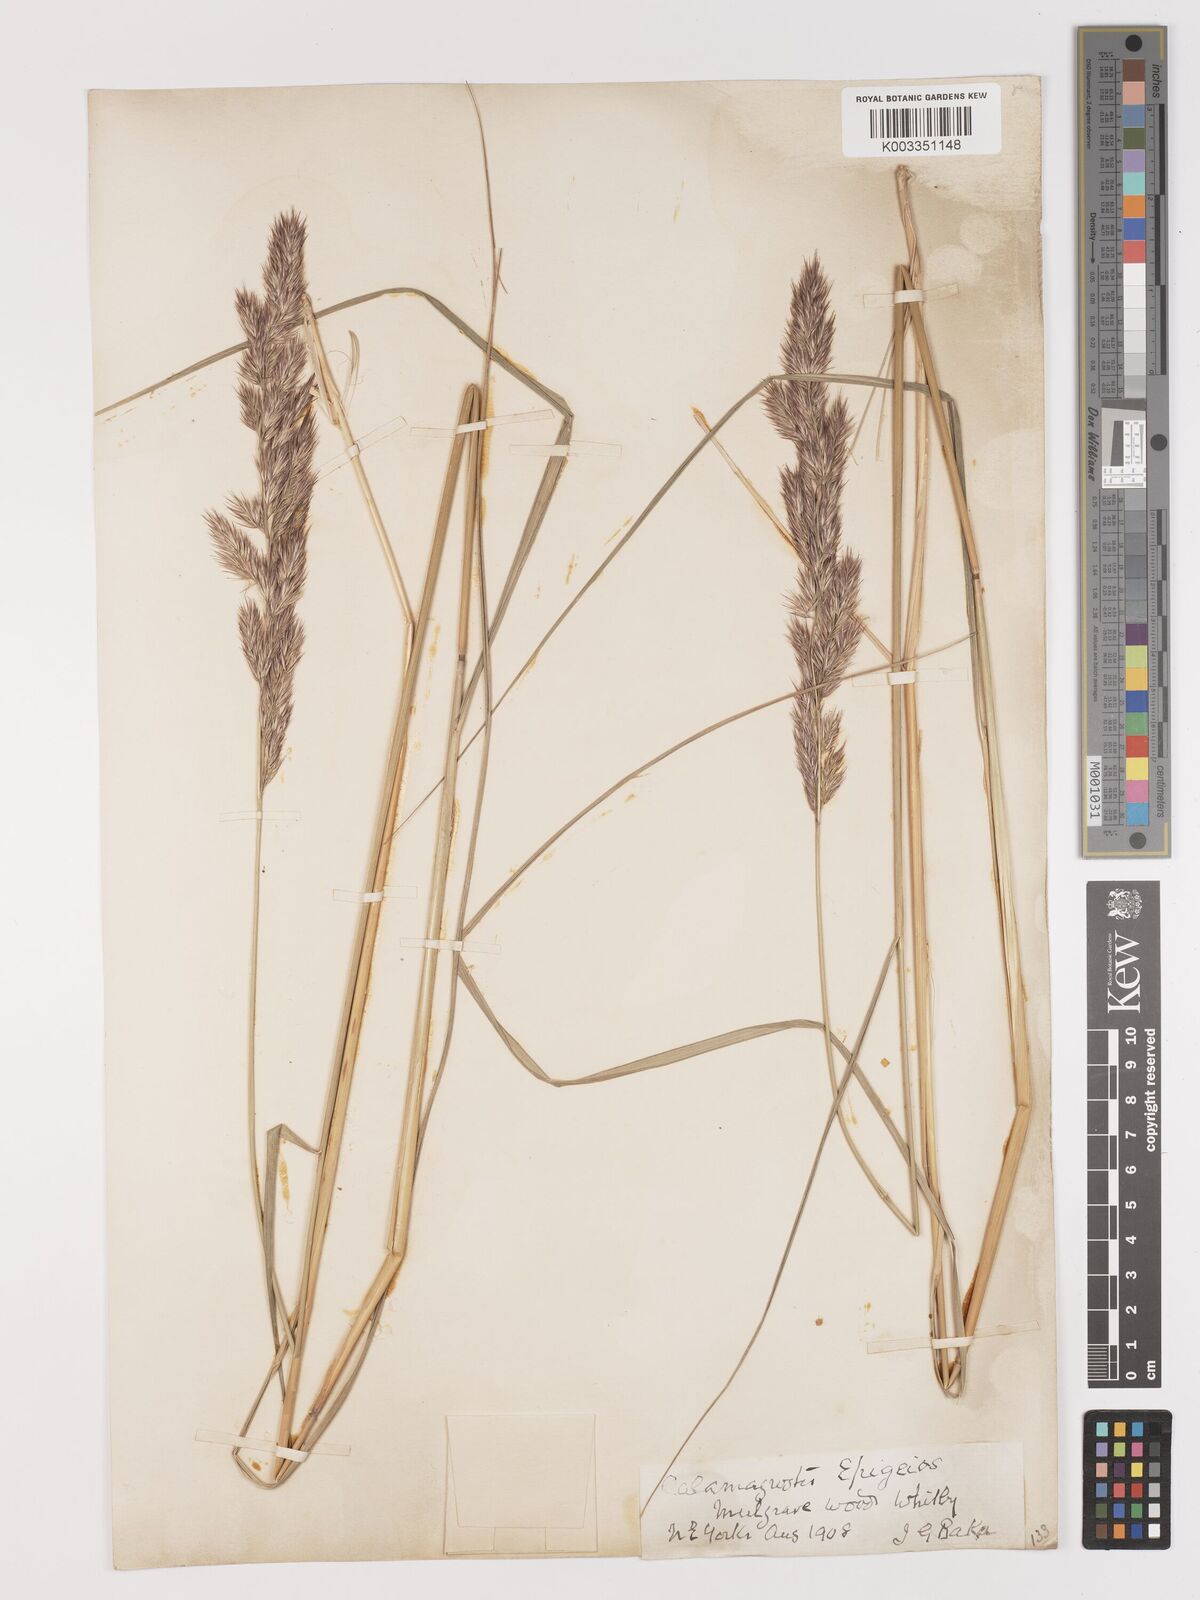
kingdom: Plantae
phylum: Tracheophyta
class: Liliopsida
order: Poales
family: Poaceae
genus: Calamagrostis
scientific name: Calamagrostis
